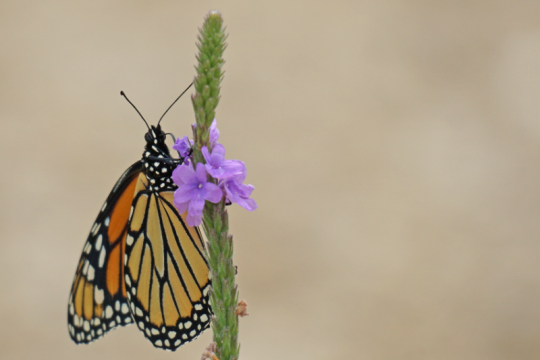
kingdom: Animalia
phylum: Arthropoda
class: Insecta
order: Lepidoptera
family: Nymphalidae
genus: Danaus
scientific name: Danaus plexippus
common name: Monarch
